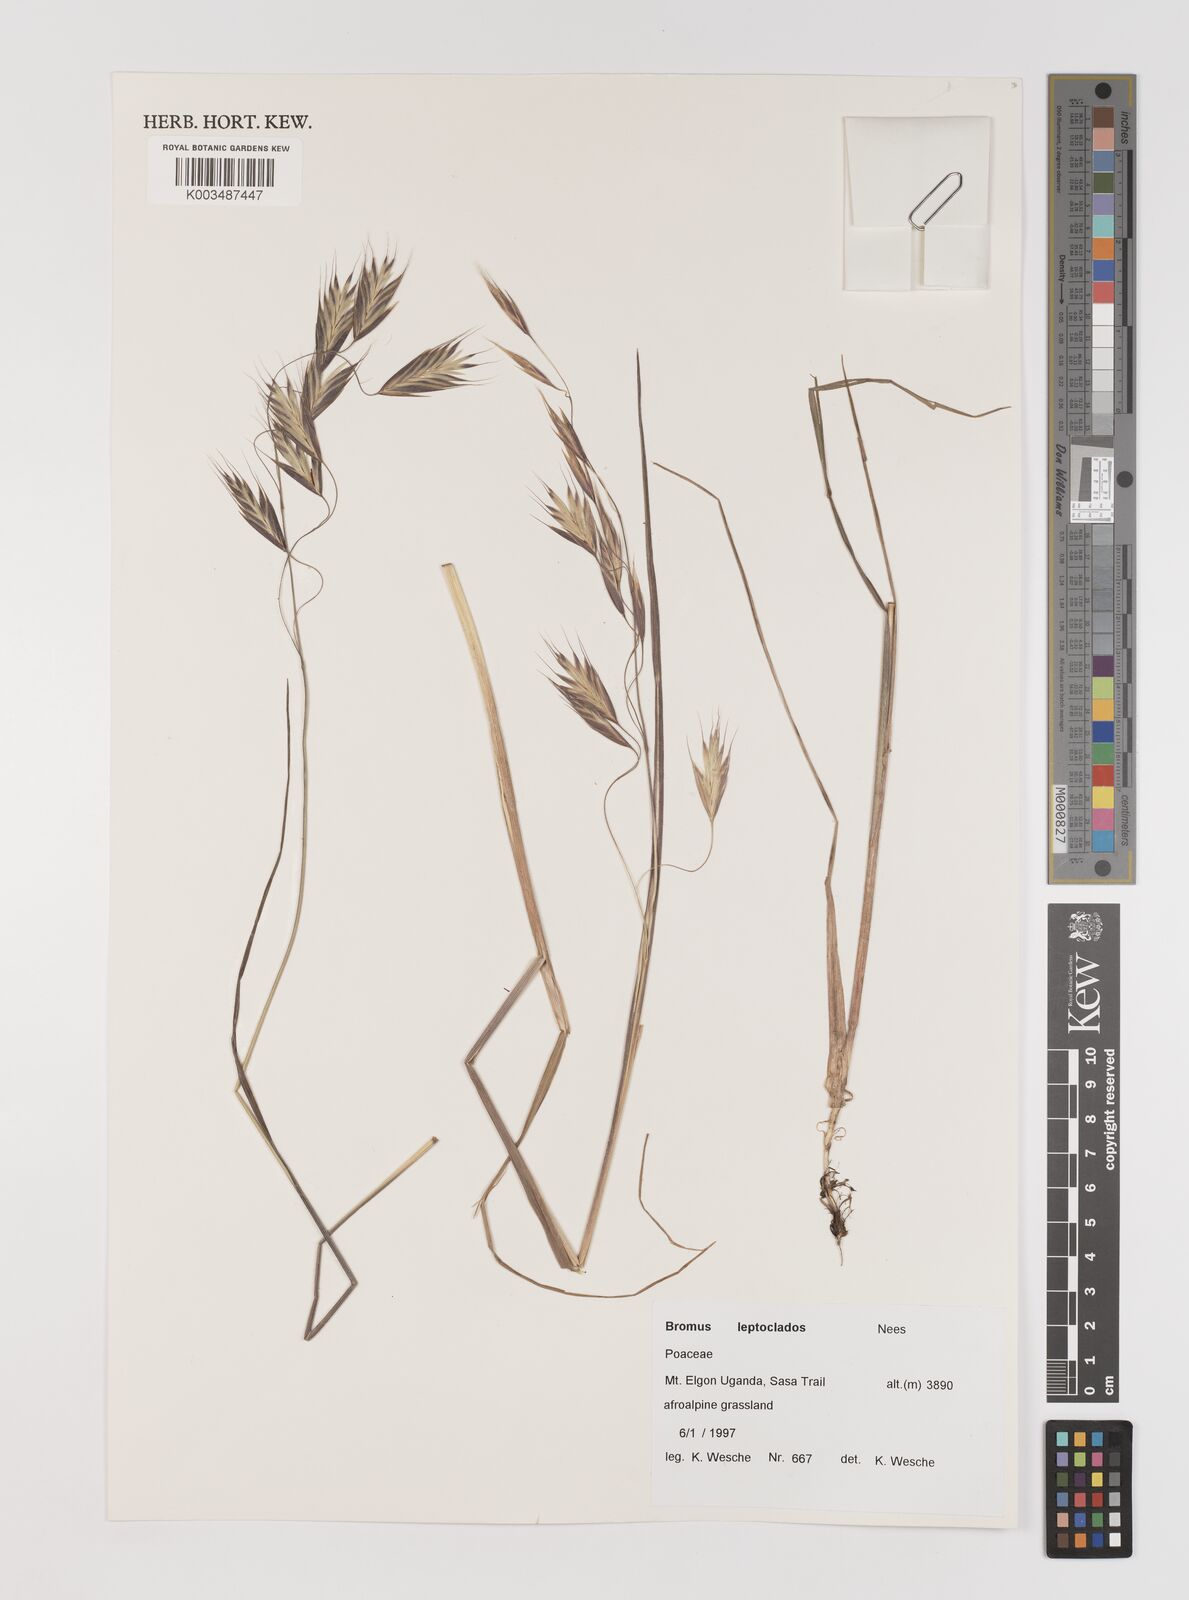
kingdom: Plantae
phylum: Tracheophyta
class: Liliopsida
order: Poales
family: Poaceae
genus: Bromus
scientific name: Bromus leptoclados
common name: Mountain bromegrass
